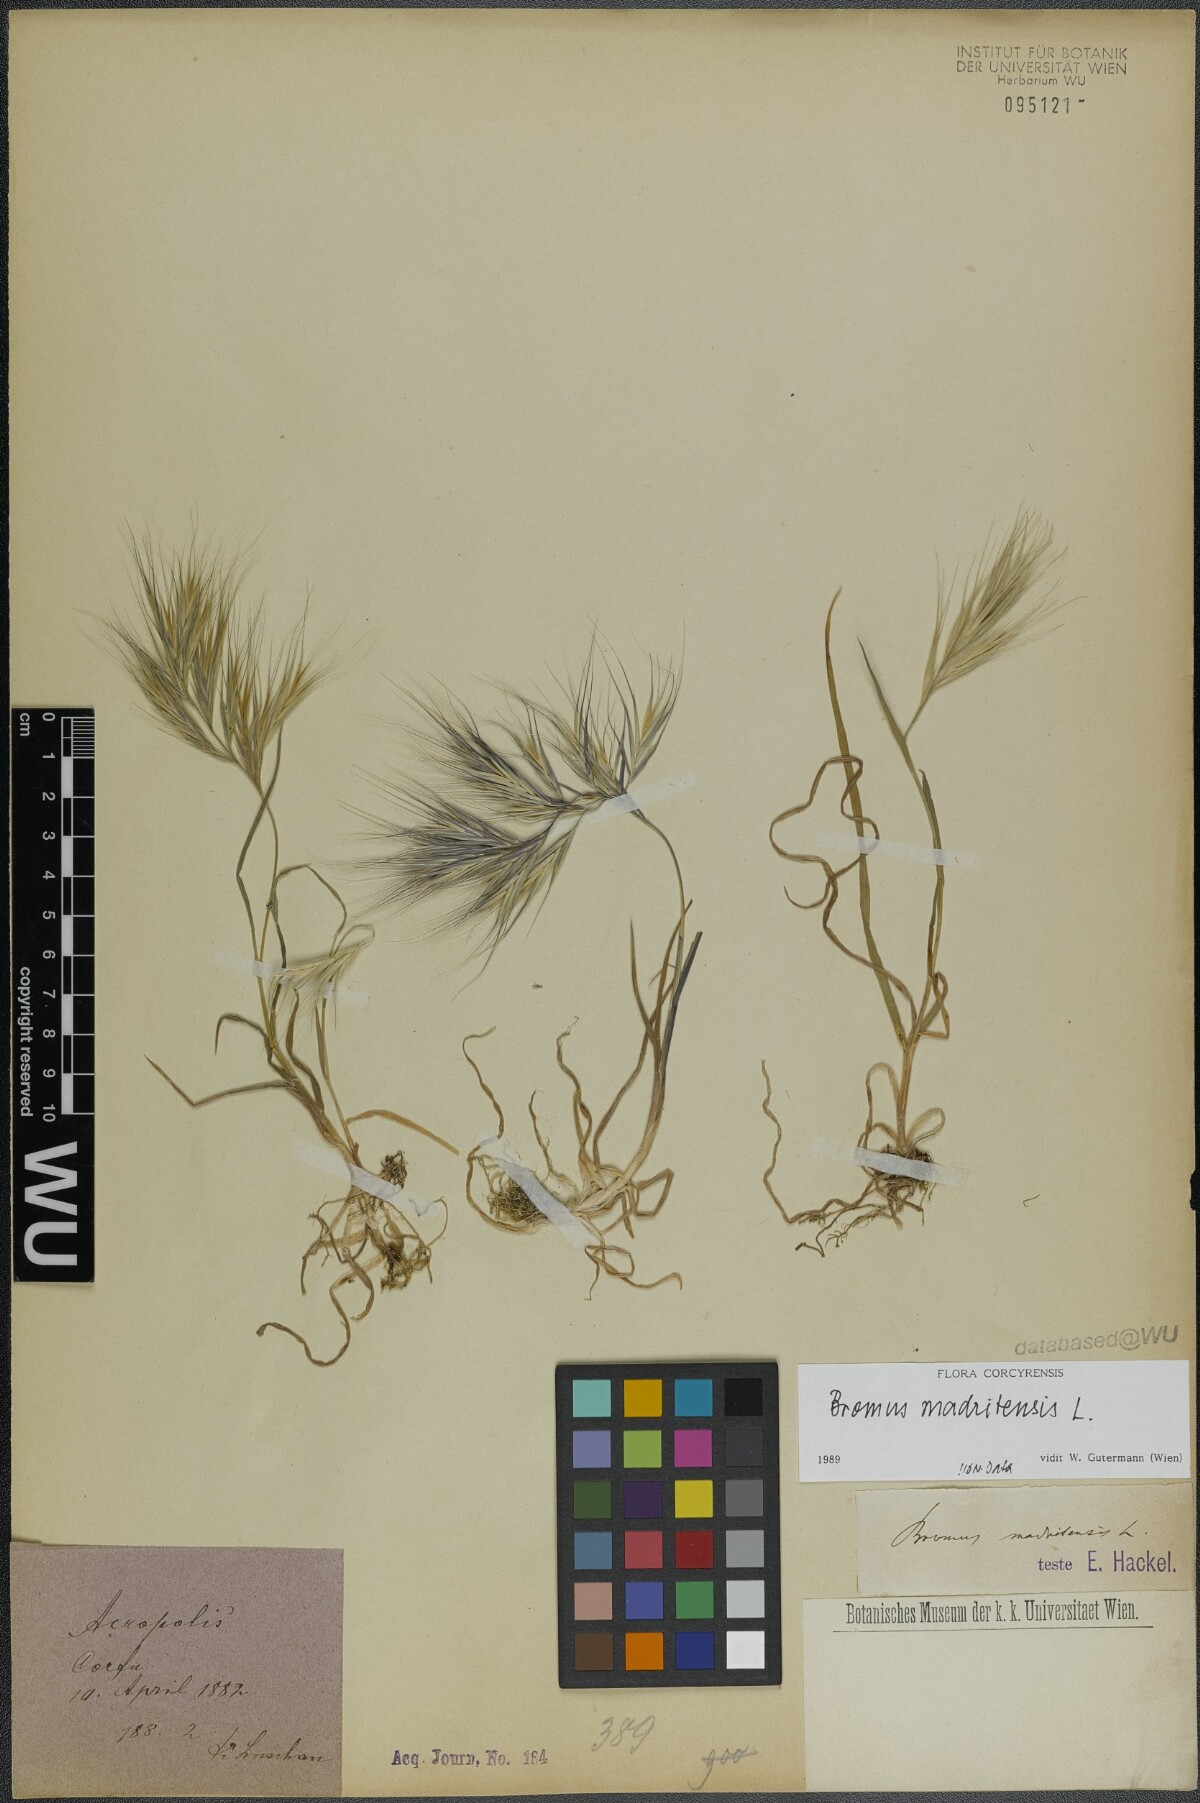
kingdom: Plantae
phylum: Tracheophyta
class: Liliopsida
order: Poales
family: Poaceae
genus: Bromus
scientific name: Bromus madritensis
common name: Compact brome
